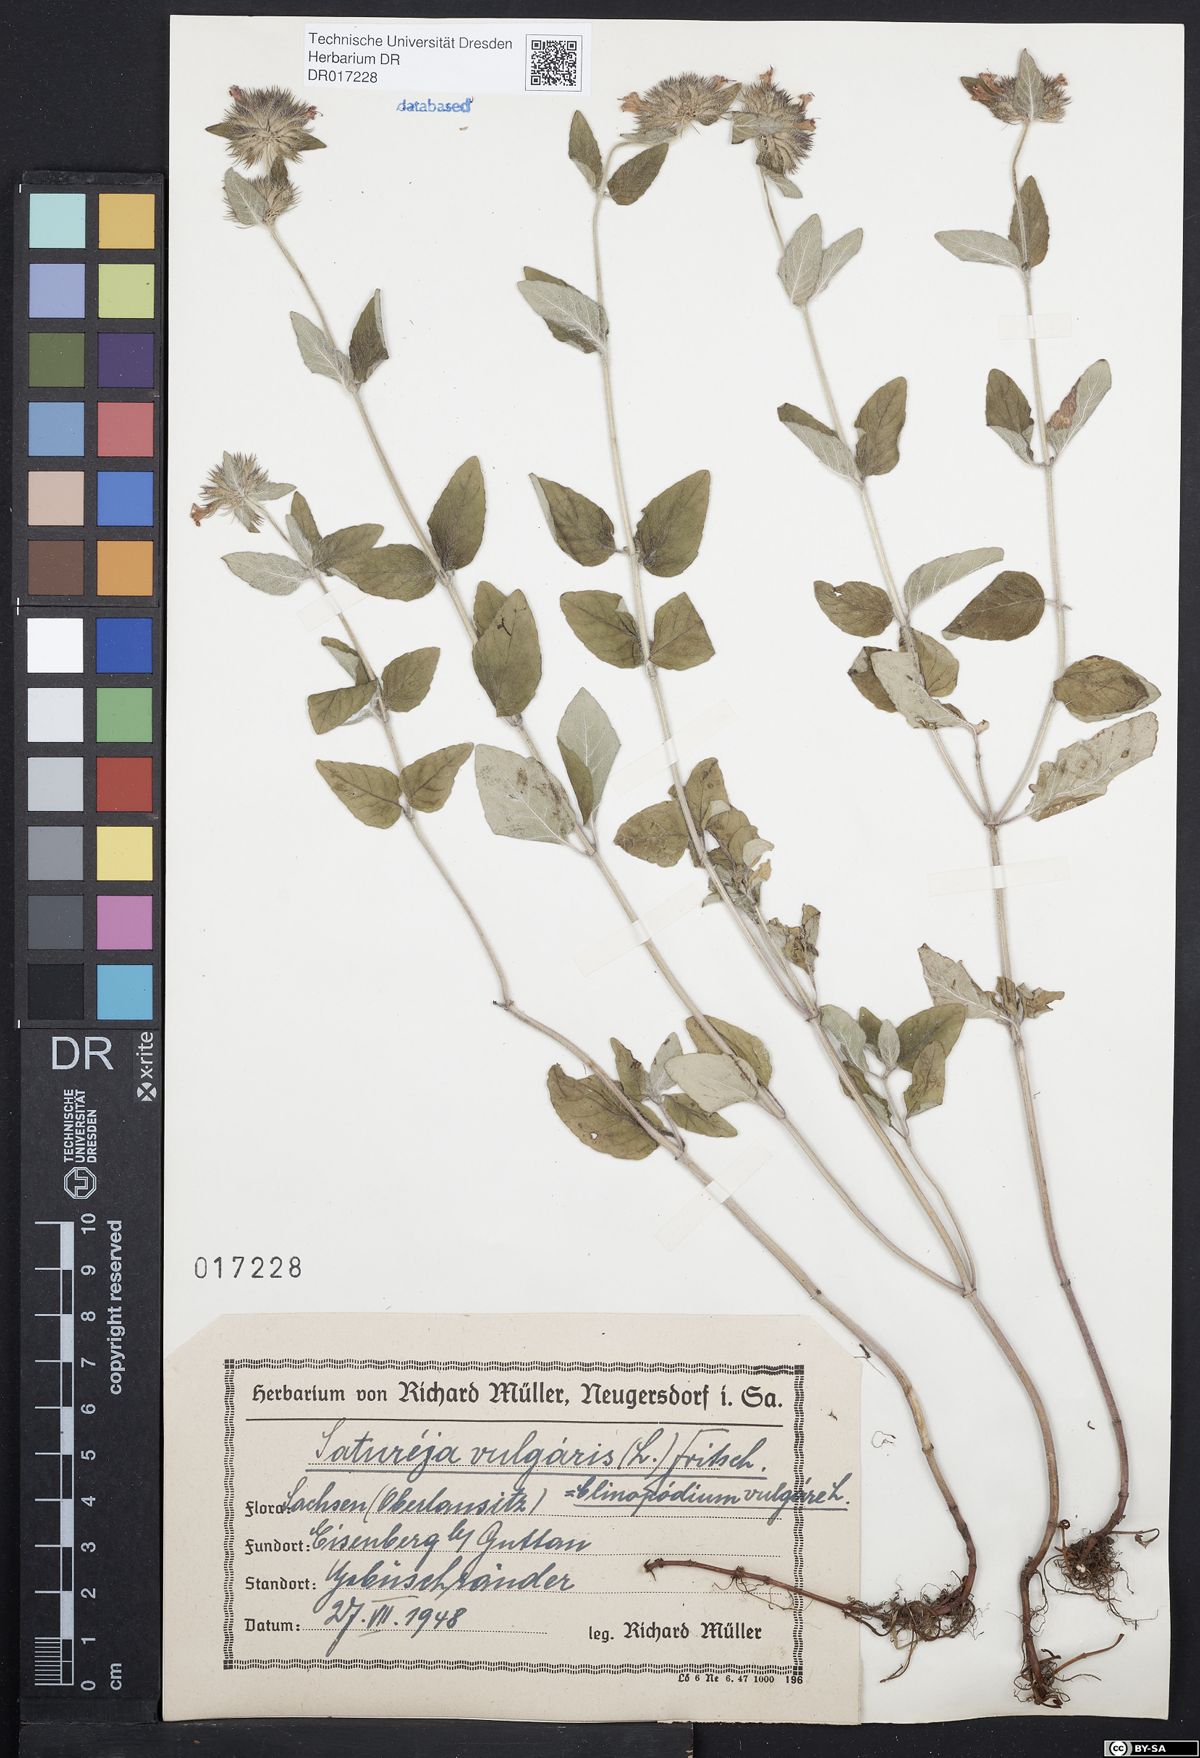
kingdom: Plantae
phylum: Tracheophyta
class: Magnoliopsida
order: Lamiales
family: Lamiaceae
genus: Clinopodium
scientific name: Clinopodium vulgare
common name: Wild basil
